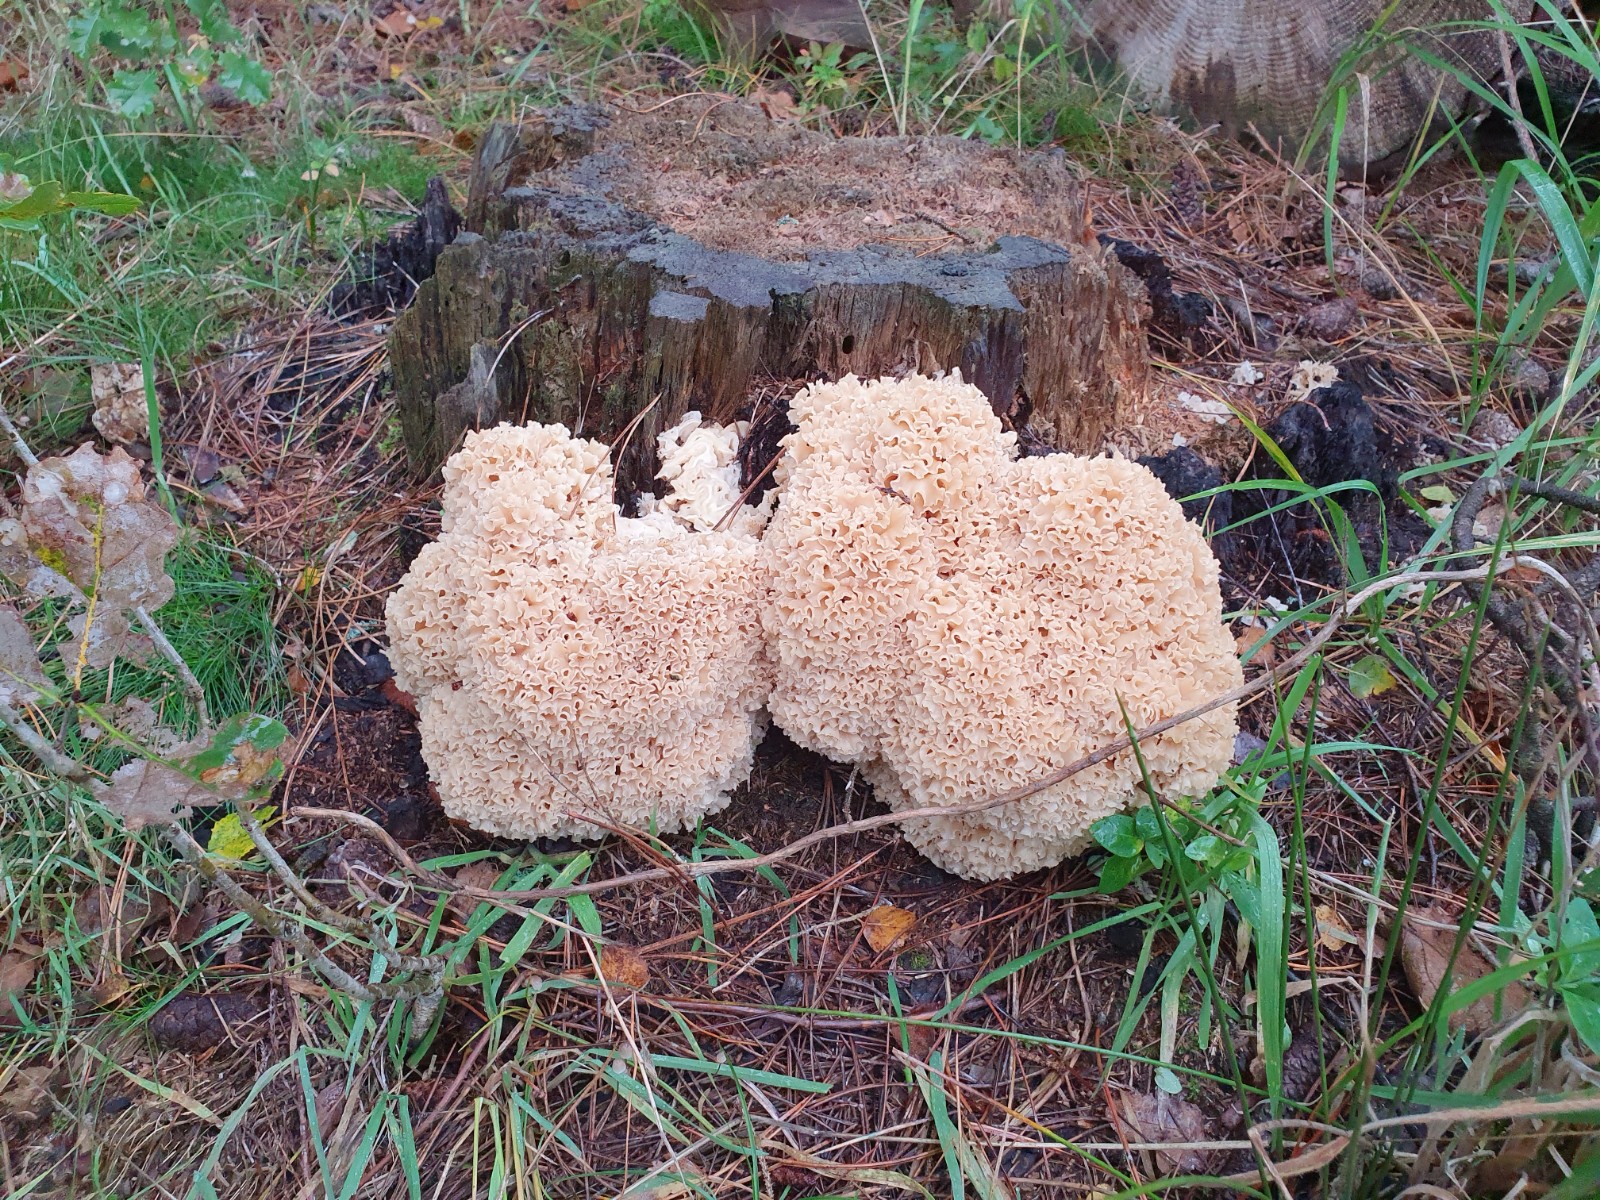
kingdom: Fungi
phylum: Basidiomycota
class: Agaricomycetes
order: Polyporales
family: Sparassidaceae
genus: Sparassis
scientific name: Sparassis crispa
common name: kruset blomkålssvamp
